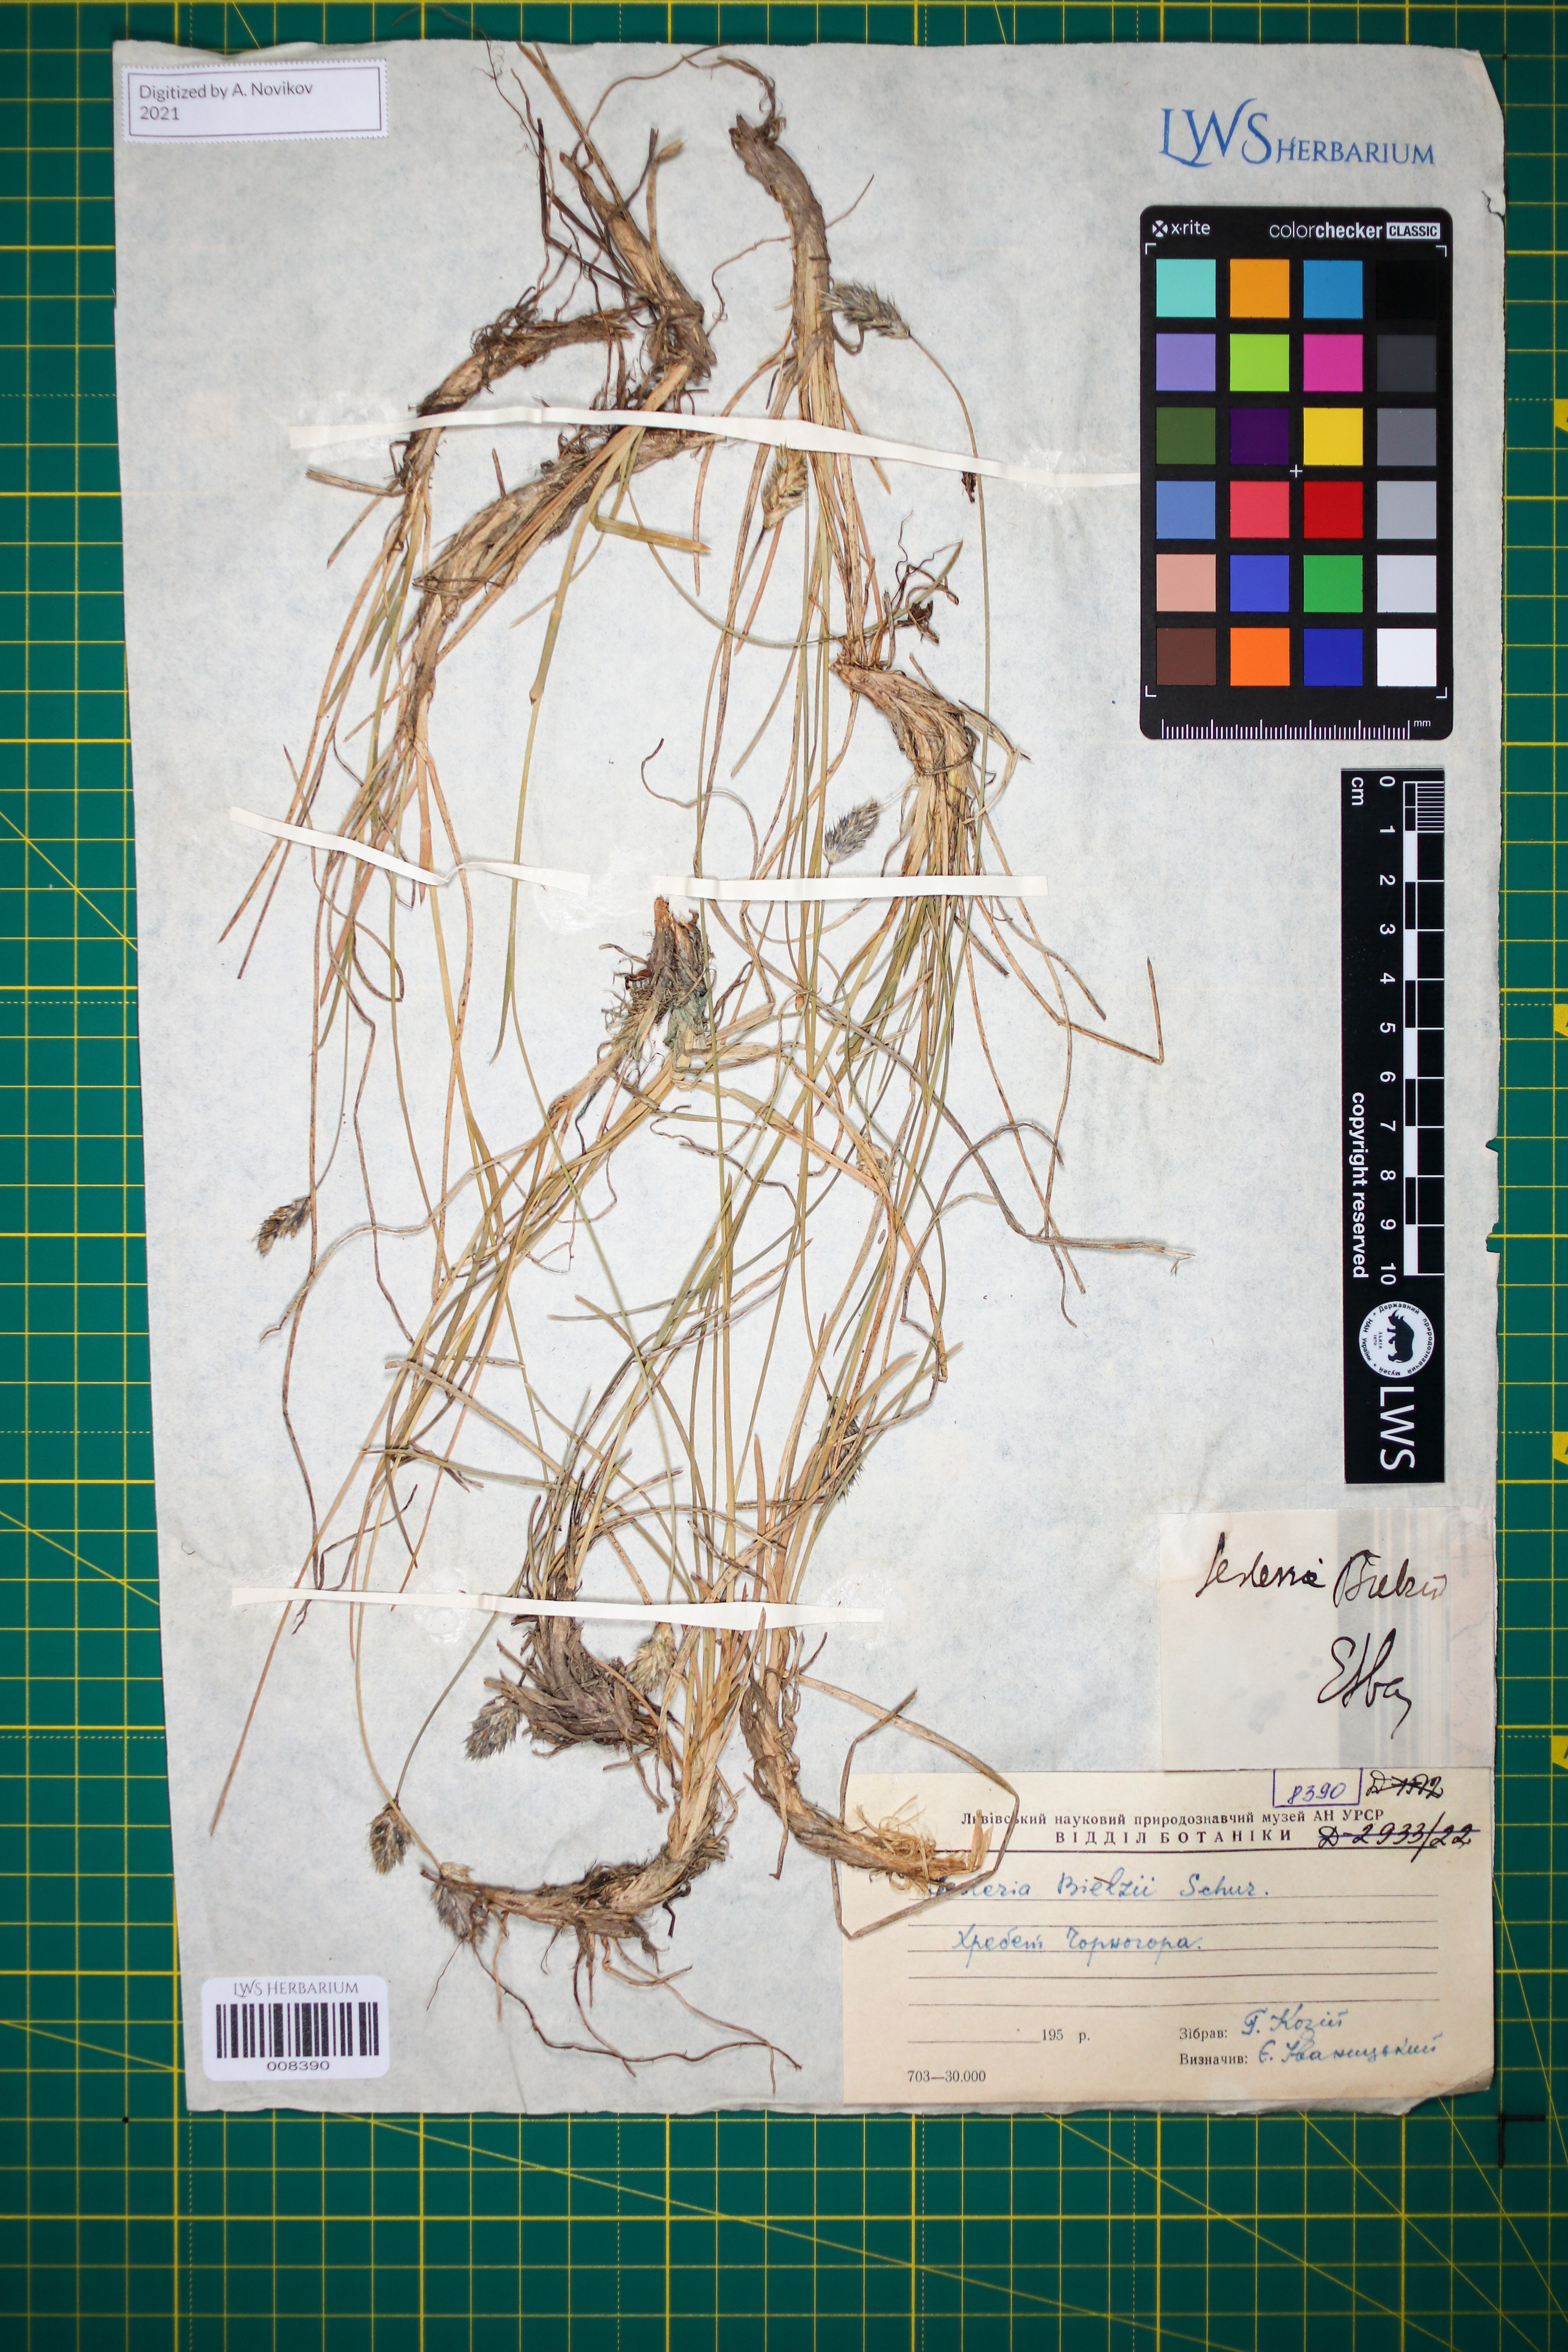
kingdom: Plantae
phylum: Tracheophyta
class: Liliopsida
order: Poales
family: Poaceae
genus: Sesleria
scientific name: Sesleria bielzii
